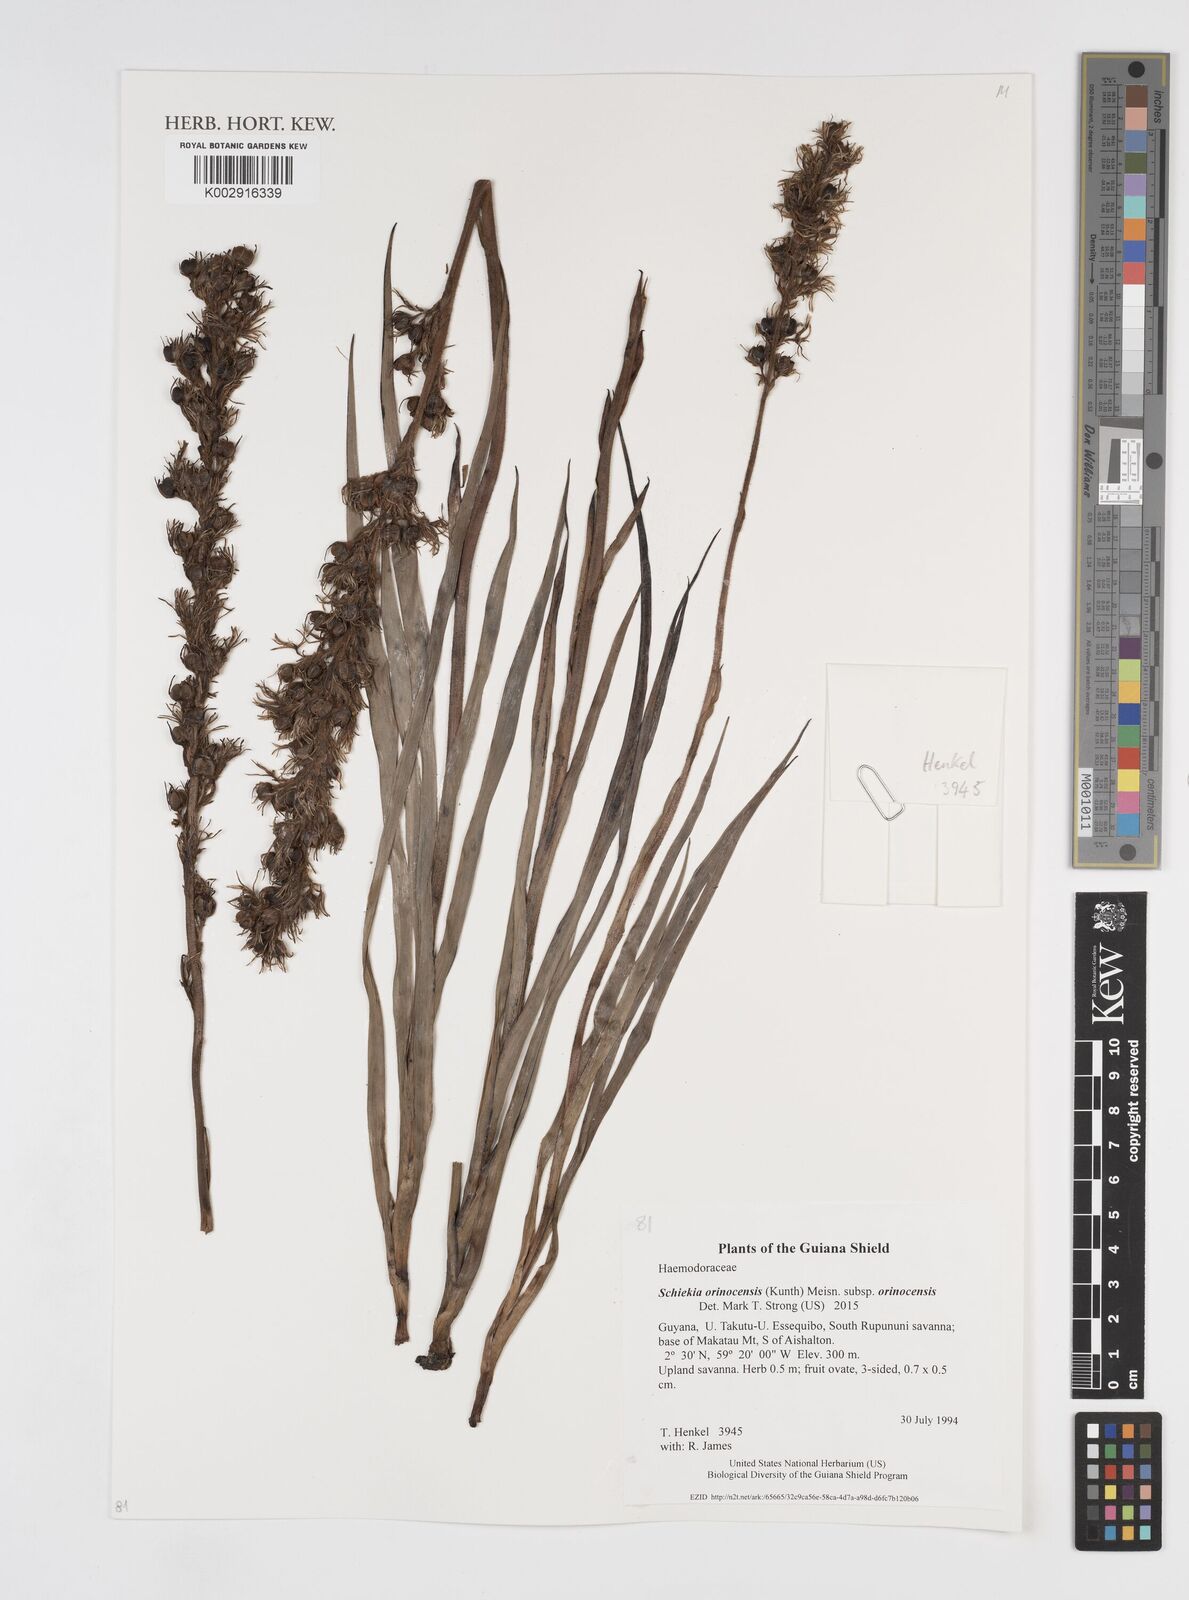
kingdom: Plantae
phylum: Tracheophyta
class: Liliopsida
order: Commelinales
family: Haemodoraceae
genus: Schiekia
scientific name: Schiekia orinocensis
